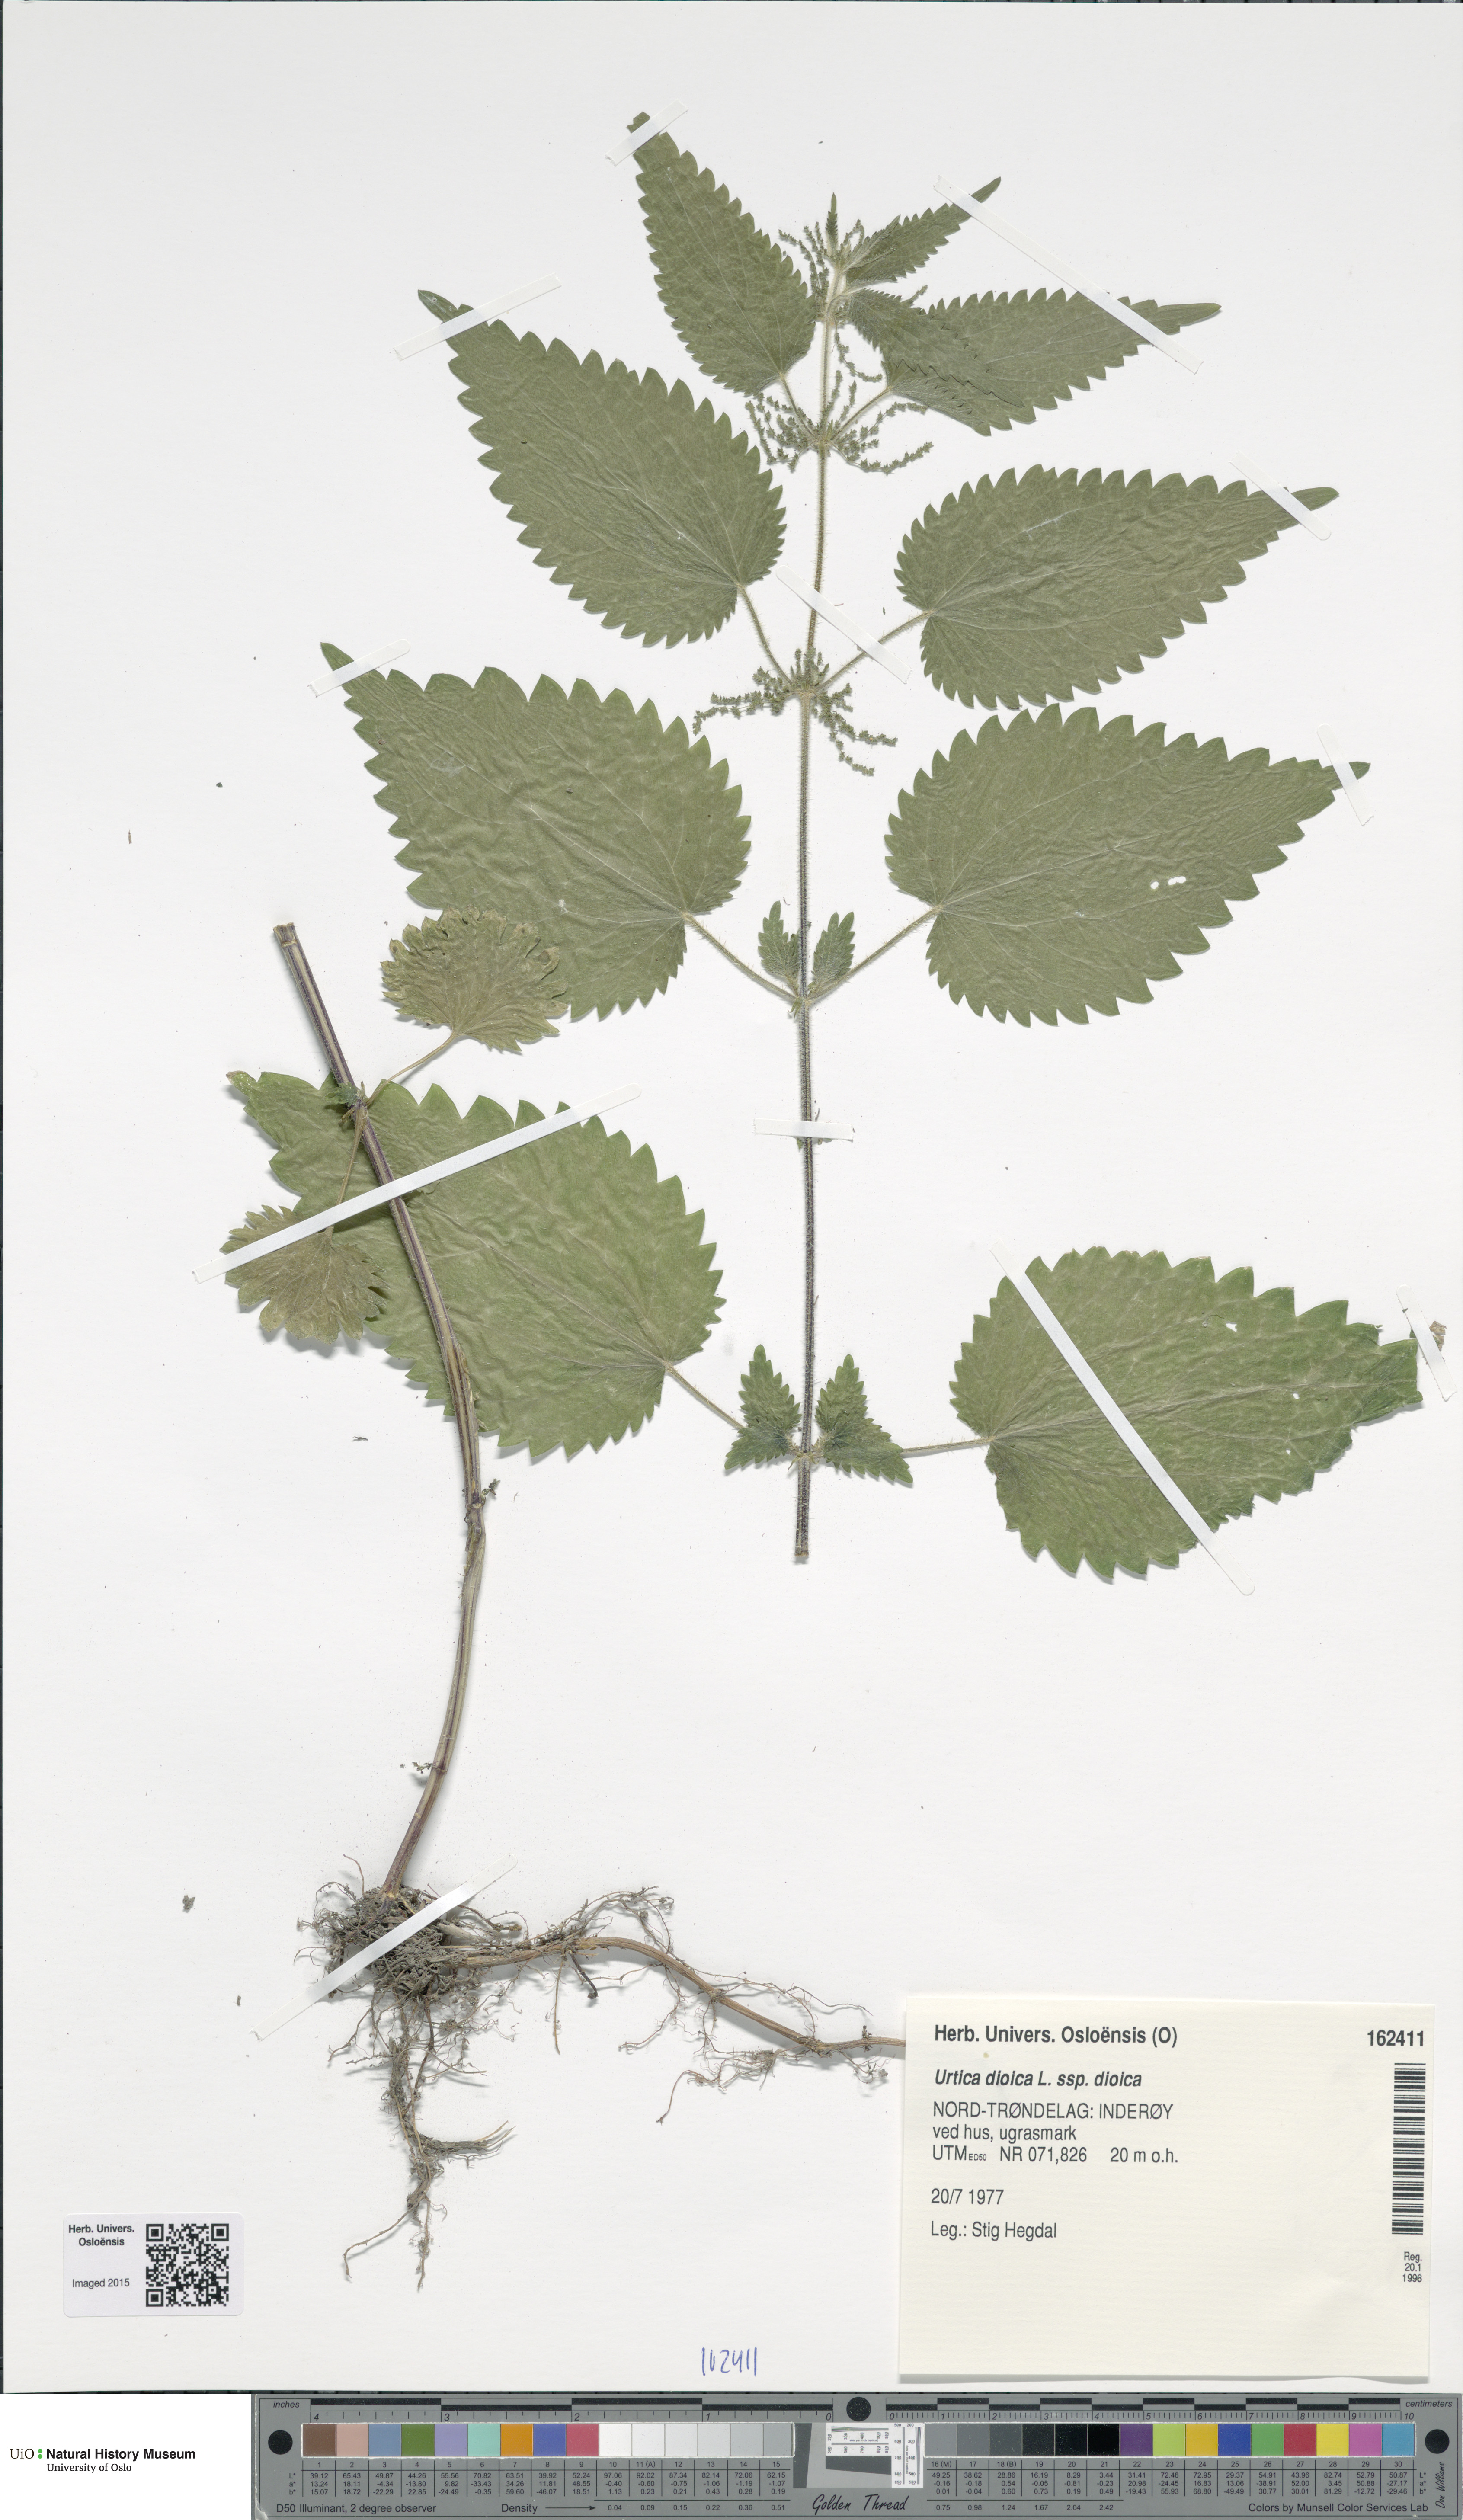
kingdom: Plantae
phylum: Tracheophyta
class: Magnoliopsida
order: Rosales
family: Urticaceae
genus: Urtica
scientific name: Urtica dioica
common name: Common nettle
